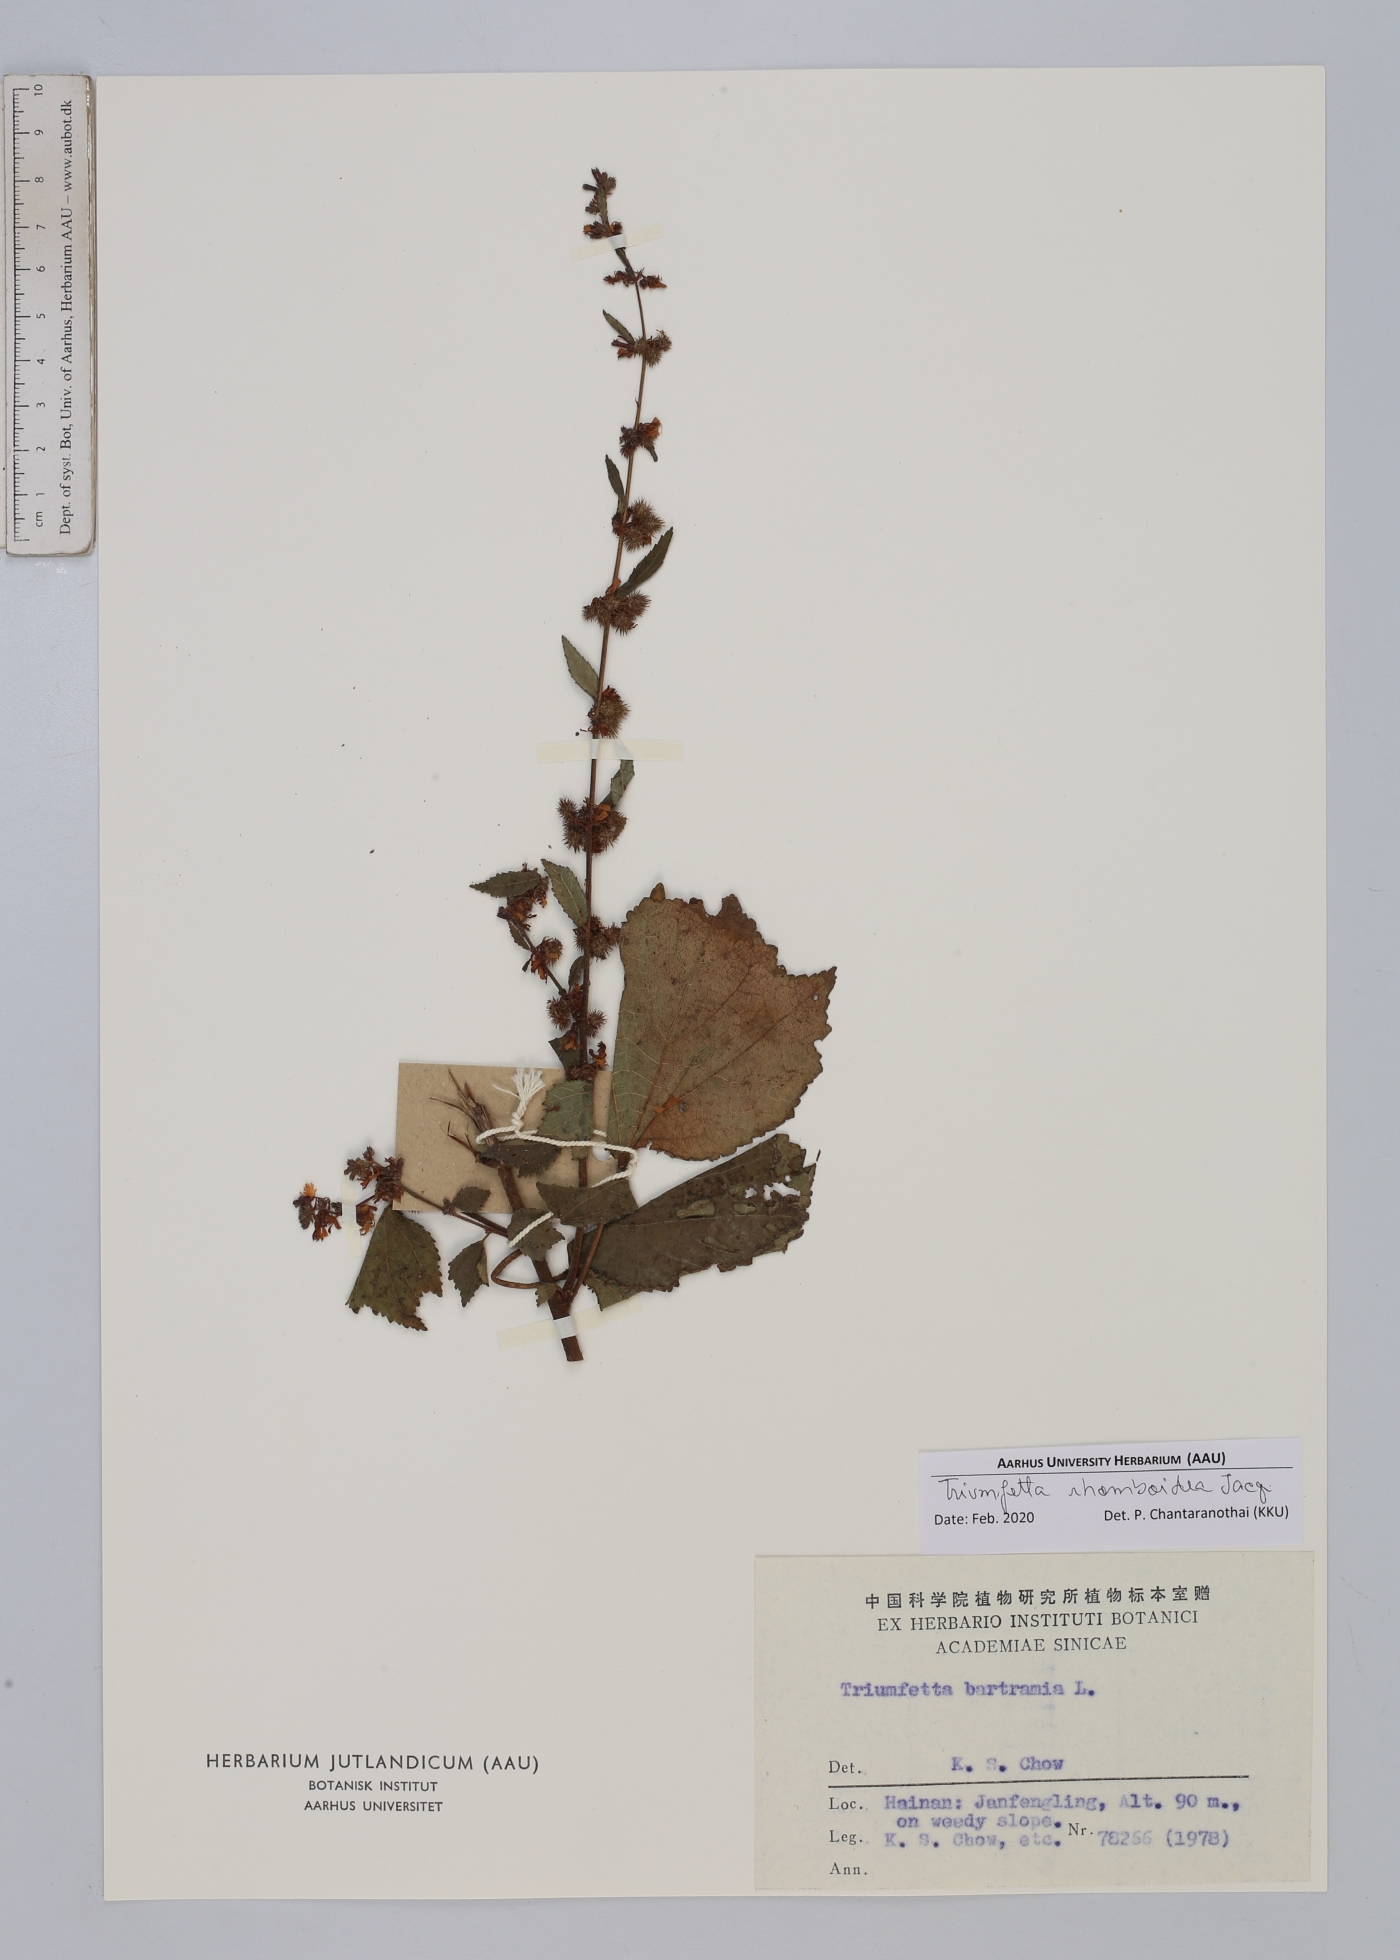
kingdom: Plantae
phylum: Tracheophyta
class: Magnoliopsida
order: Malvales
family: Malvaceae
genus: Triumfetta
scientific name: Triumfetta rhomboidea
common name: Diamond burbark
